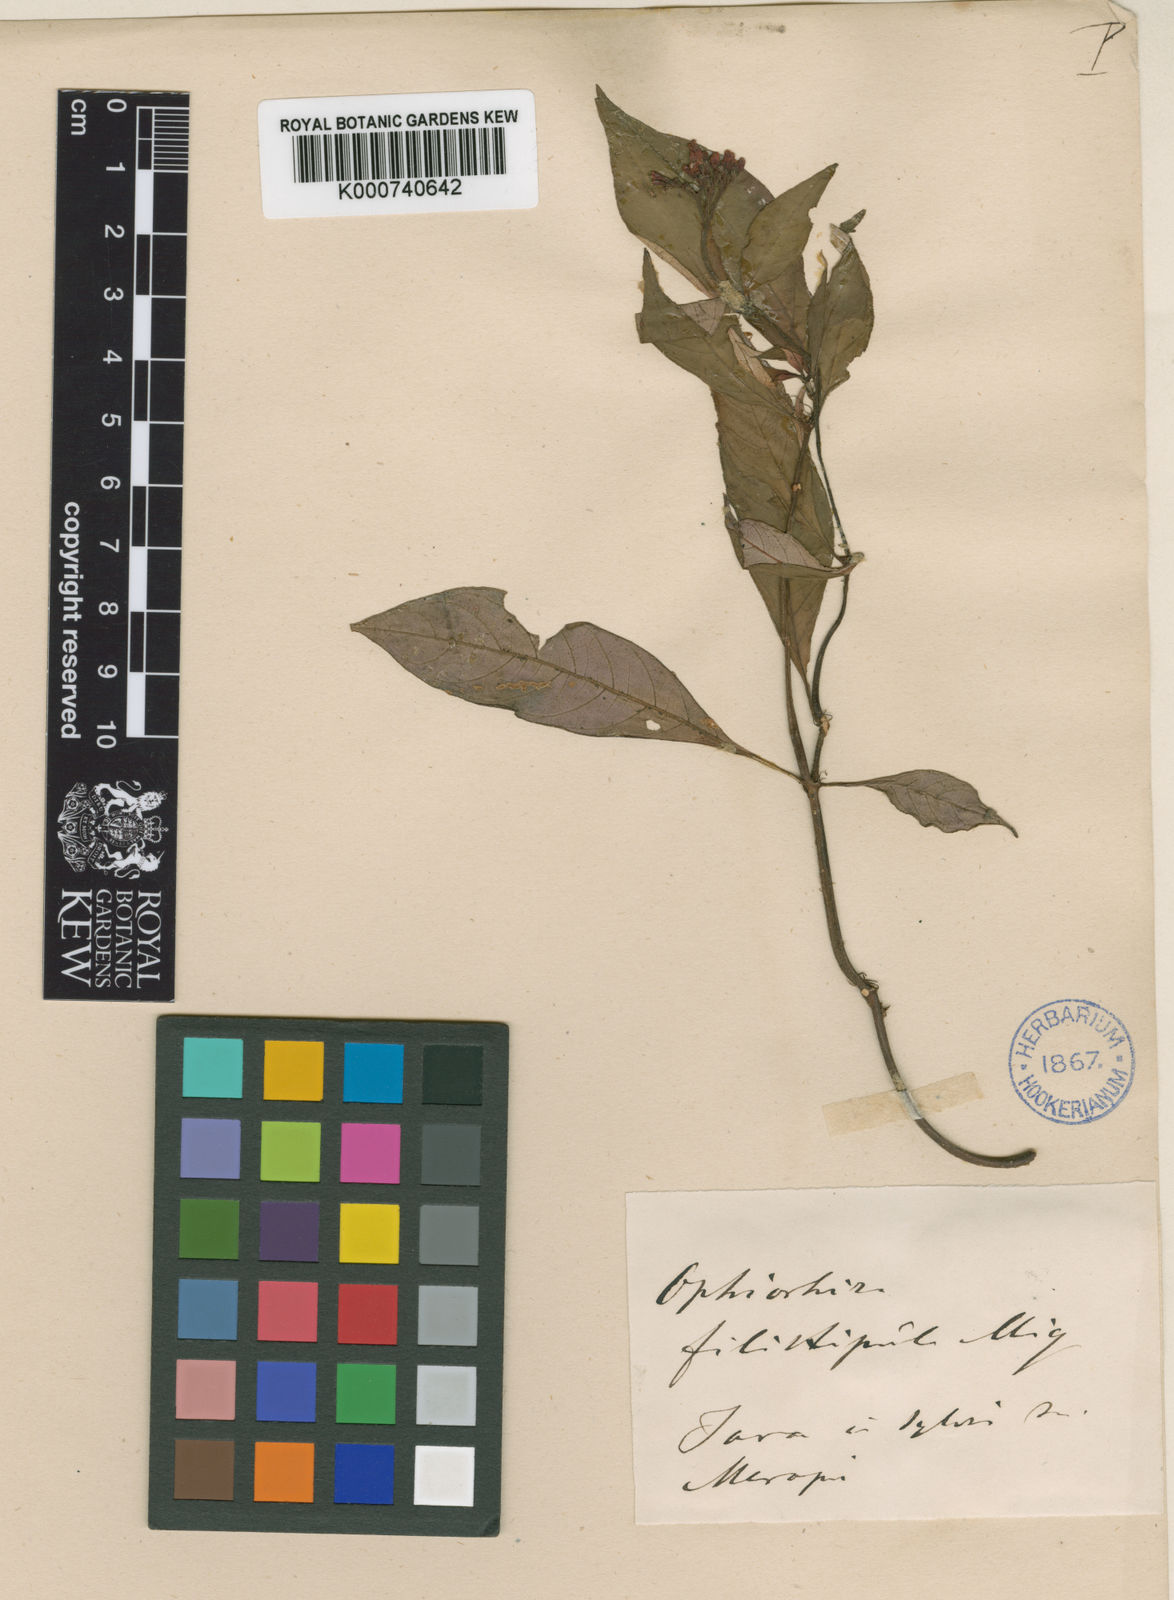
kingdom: Plantae
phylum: Tracheophyta
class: Magnoliopsida
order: Gentianales
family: Rubiaceae
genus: Ophiorrhiza
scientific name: Ophiorrhiza filistipula
